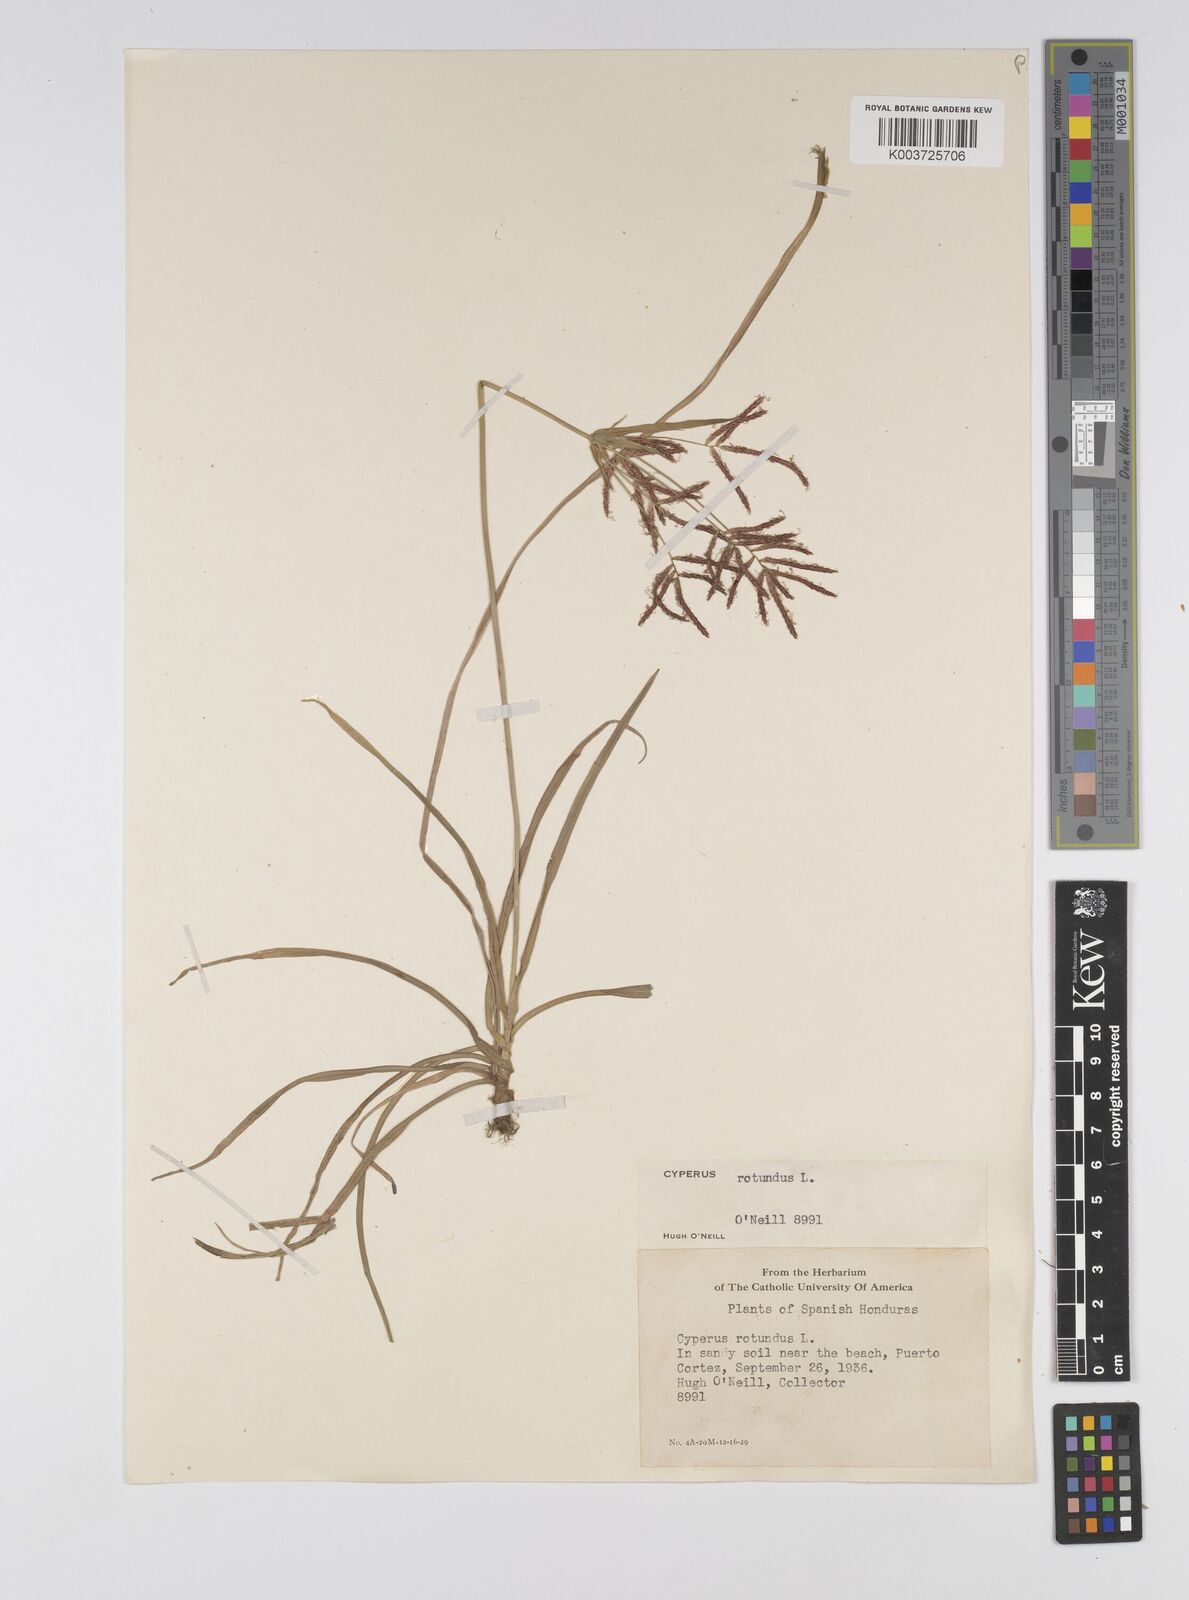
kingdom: Plantae
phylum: Tracheophyta
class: Liliopsida
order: Poales
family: Cyperaceae
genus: Cyperus
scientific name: Cyperus rotundus
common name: Nutgrass
